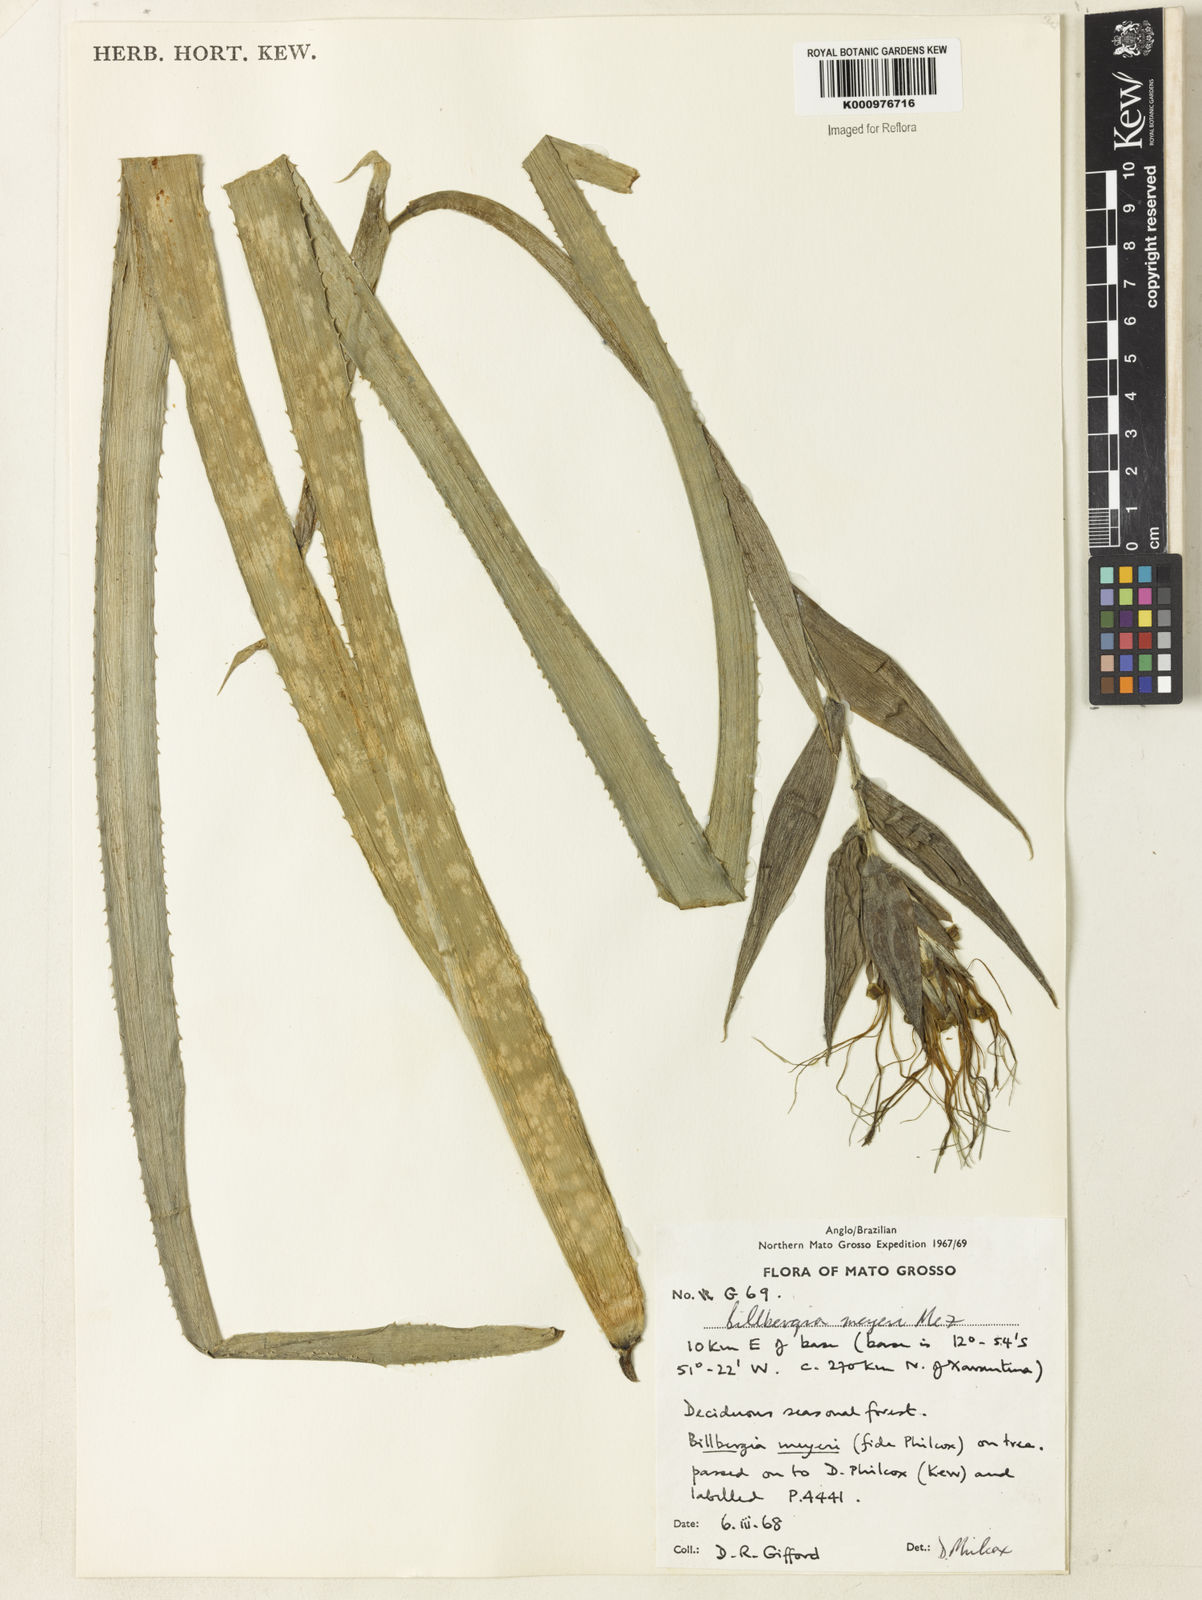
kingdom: Plantae
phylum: Tracheophyta
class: Liliopsida
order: Poales
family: Bromeliaceae
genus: Billbergia
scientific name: Billbergia meyeri
